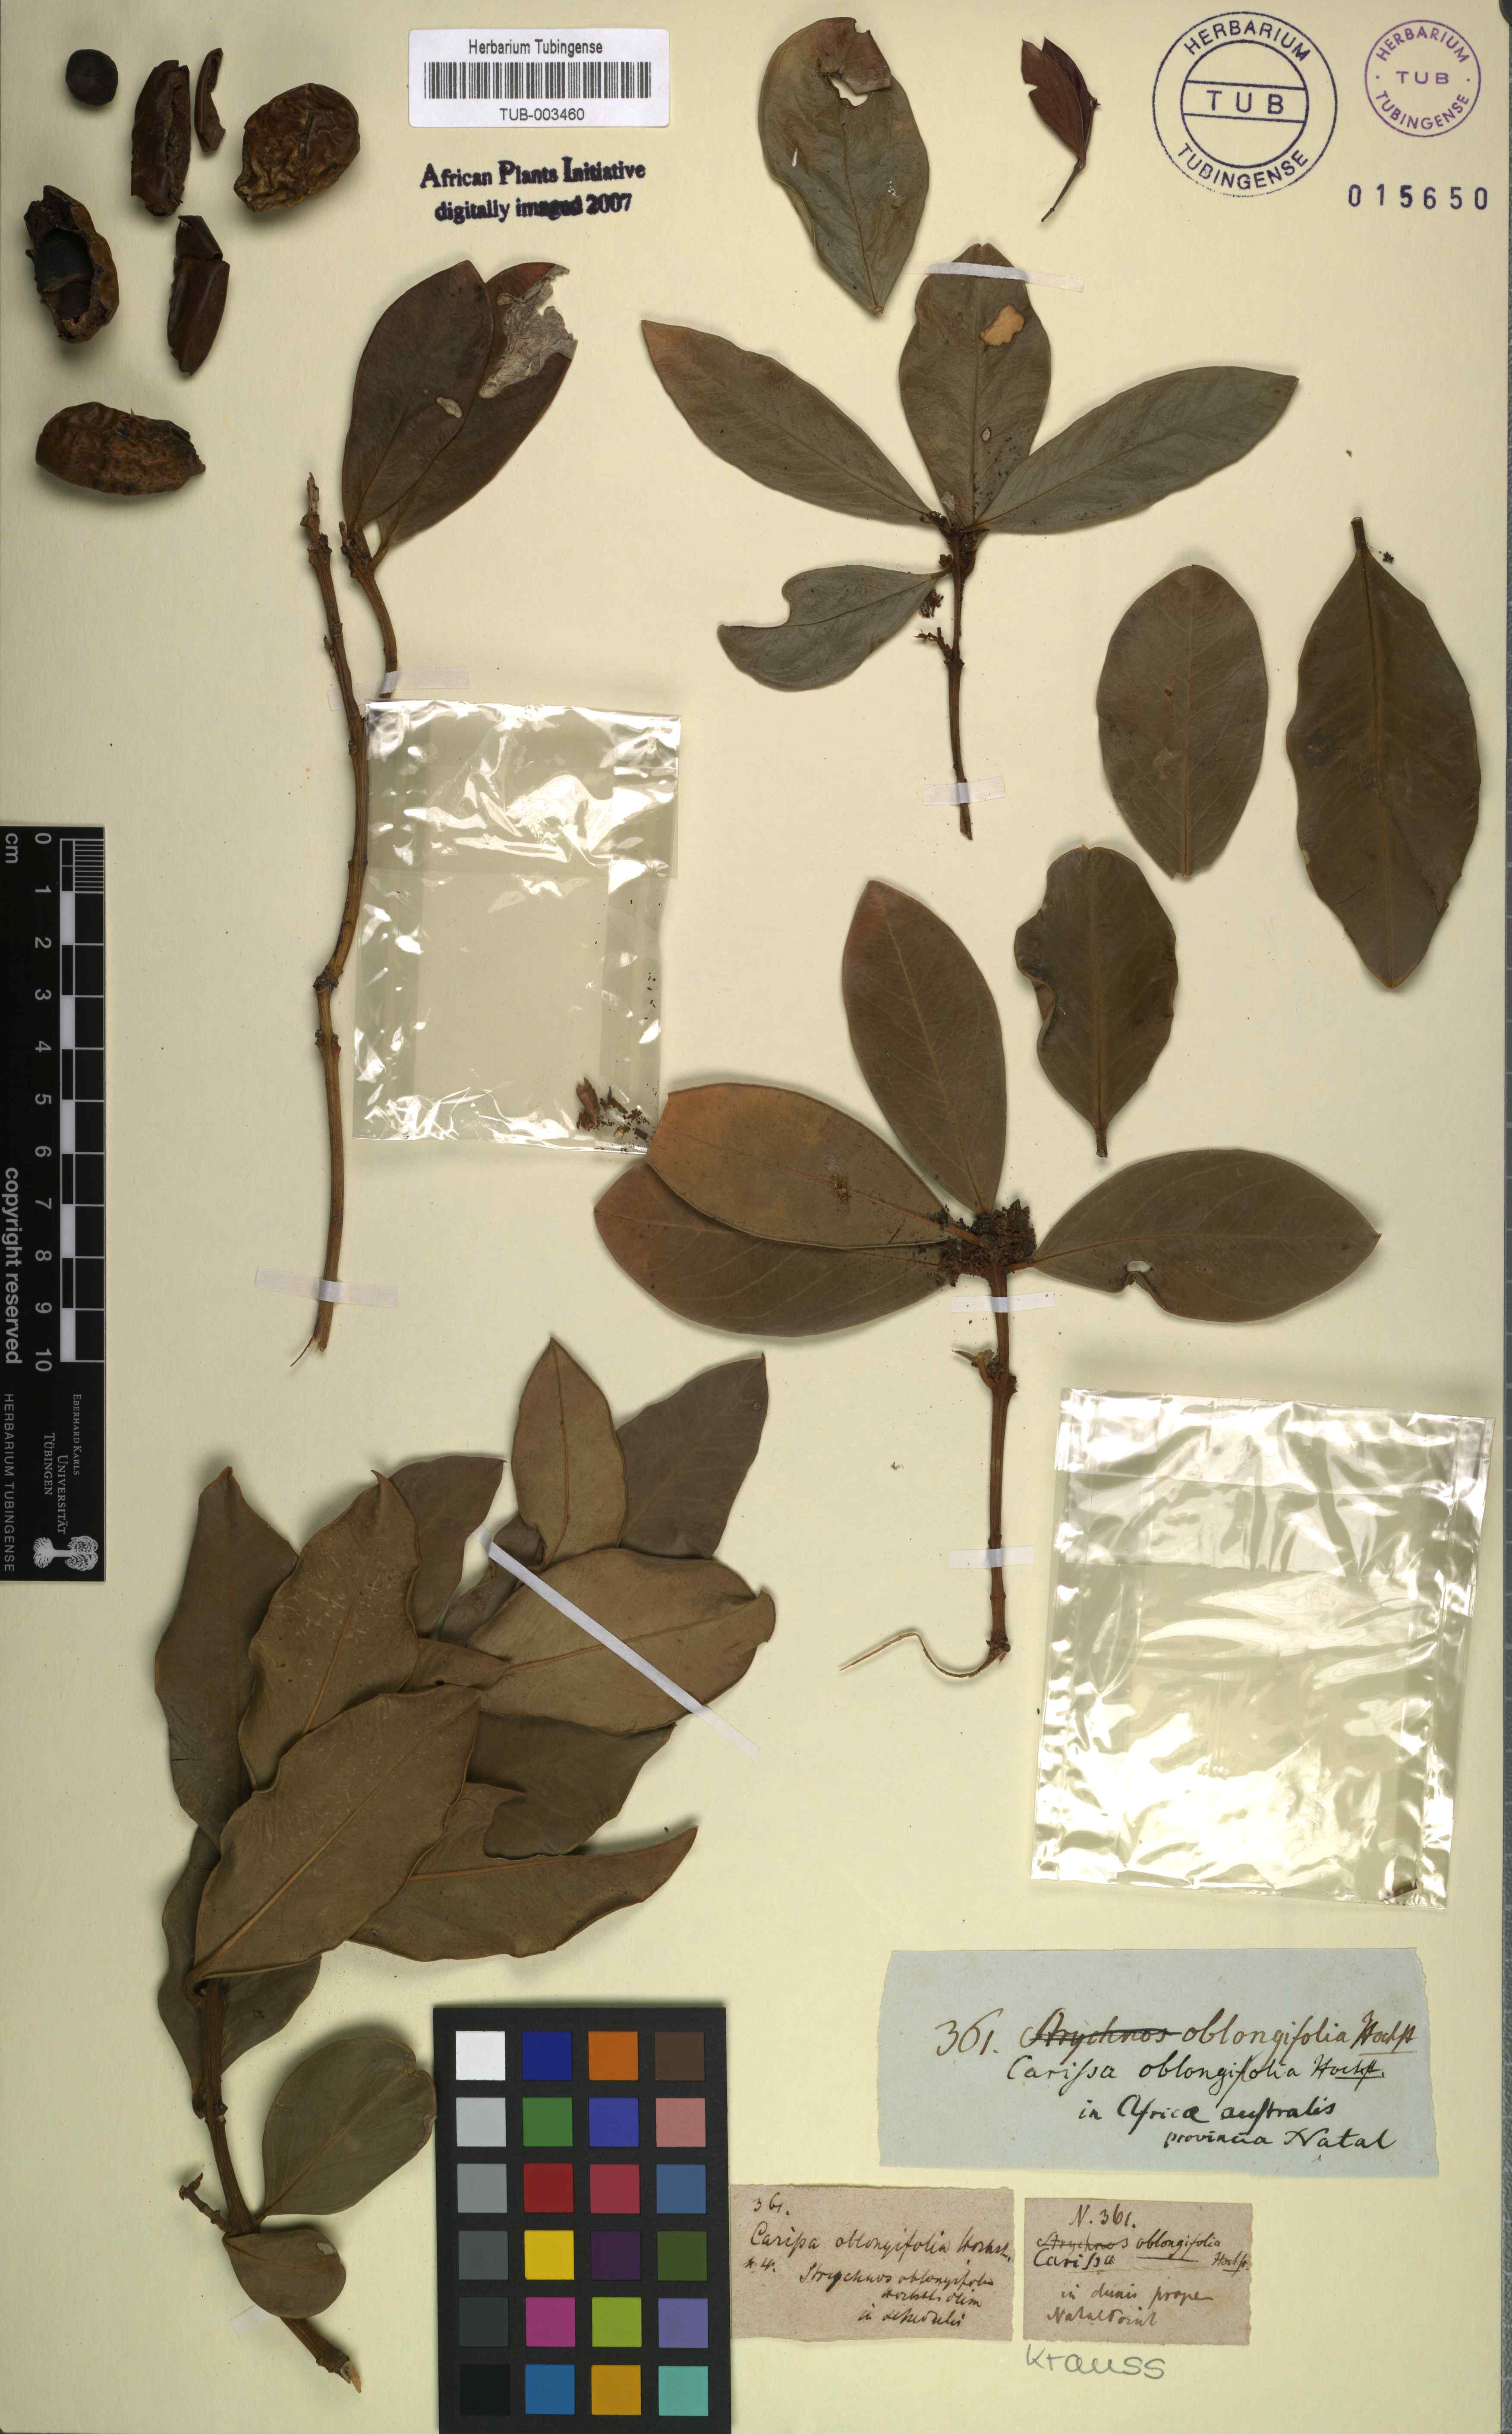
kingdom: Plantae
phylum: Tracheophyta
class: Magnoliopsida
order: Gentianales
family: Apocynaceae
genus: Acokanthera
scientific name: Acokanthera oblongifolia
